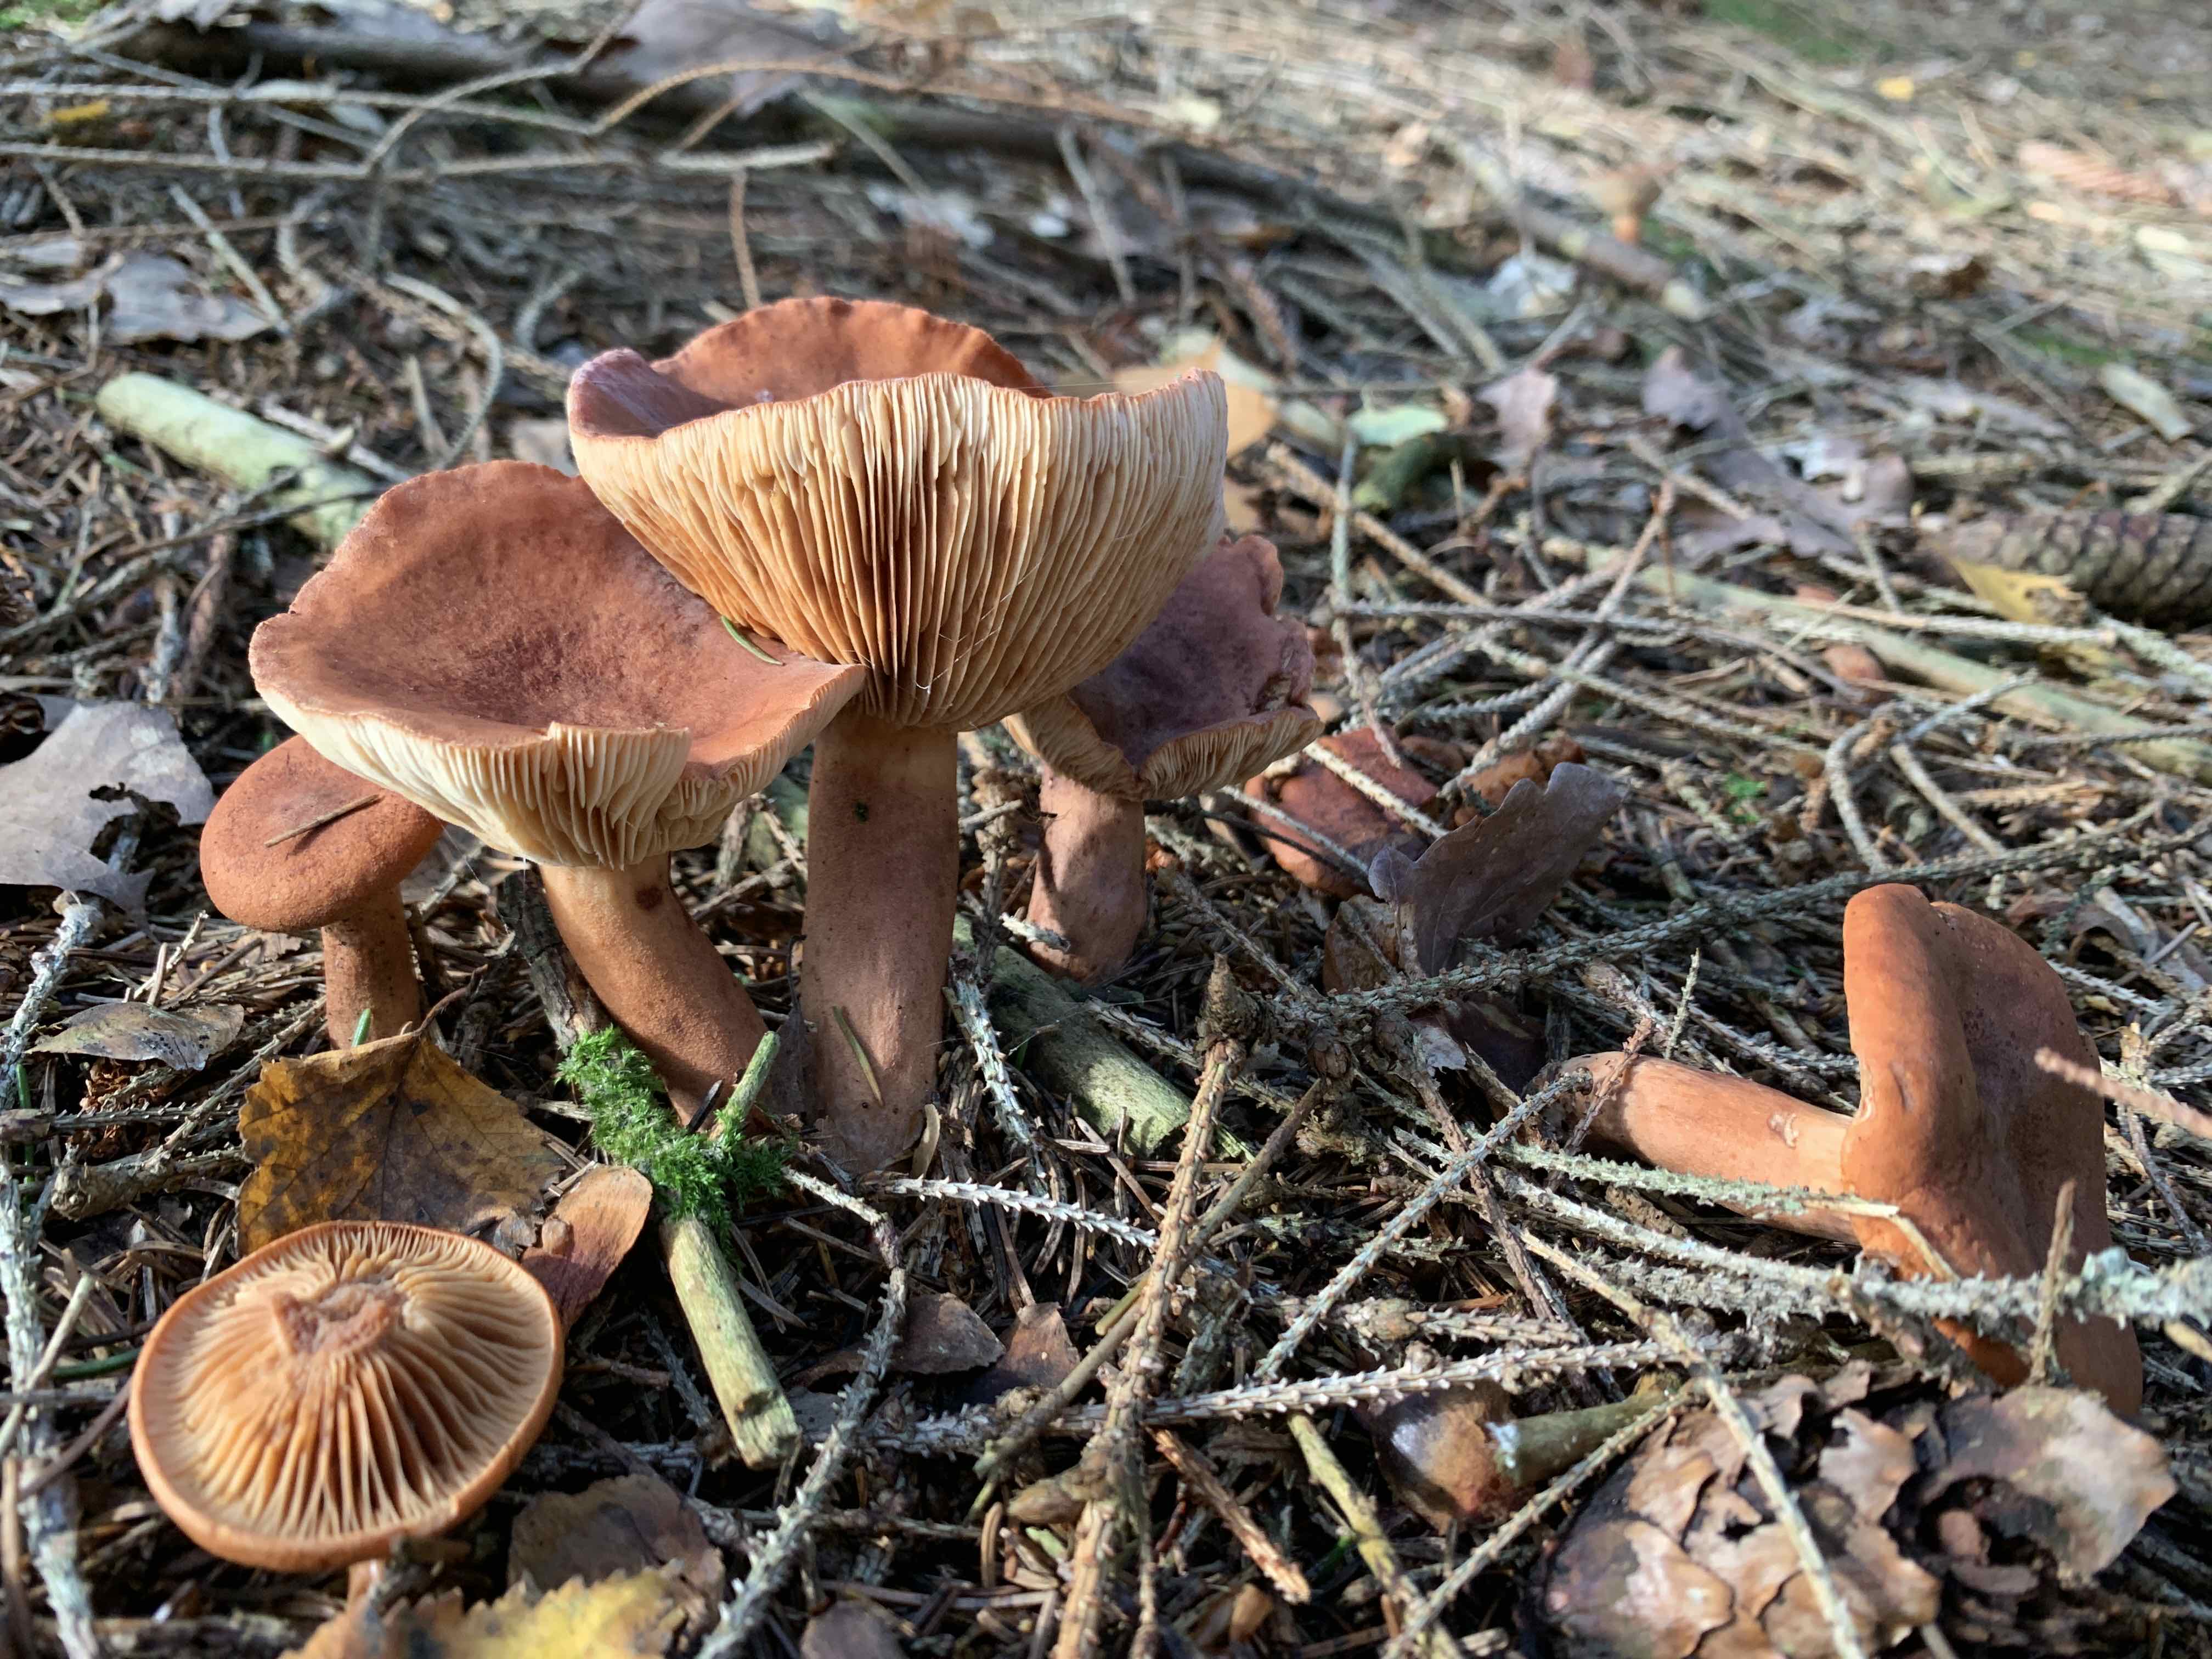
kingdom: Fungi
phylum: Basidiomycota
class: Agaricomycetes
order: Russulales
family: Russulaceae
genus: Lactarius
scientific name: Lactarius
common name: mælkehat
